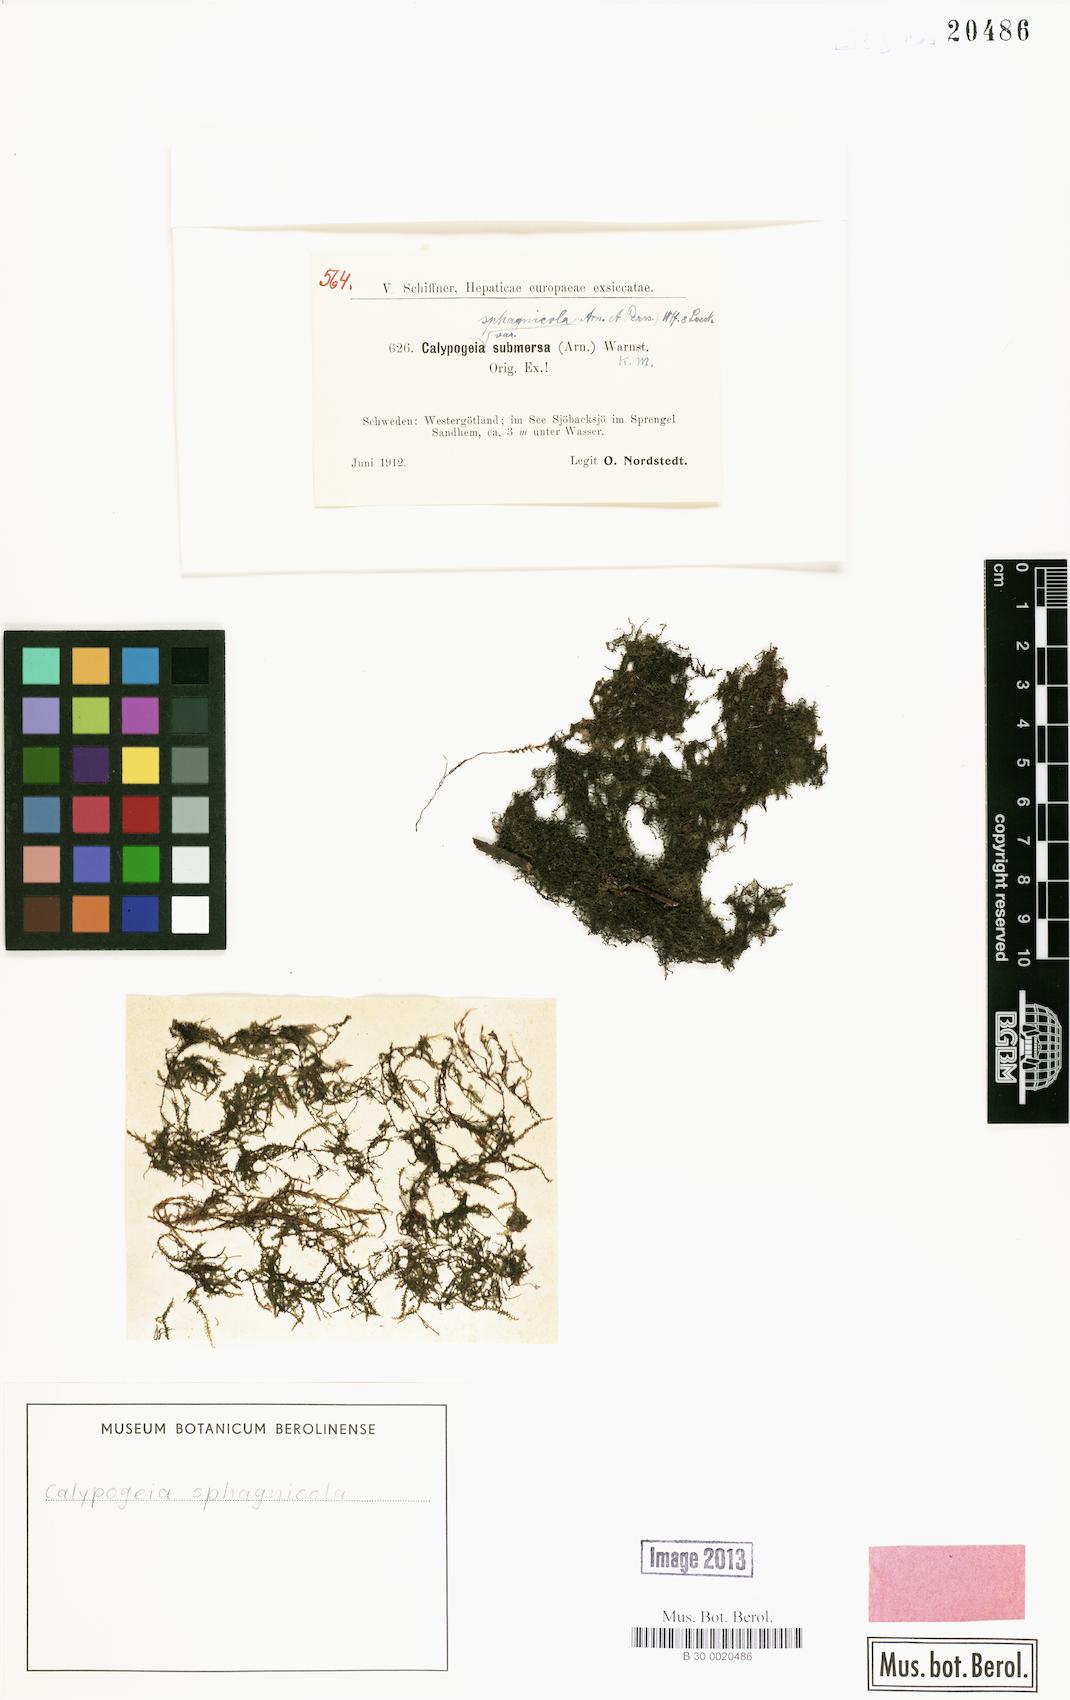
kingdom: Plantae
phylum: Marchantiophyta
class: Jungermanniopsida
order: Jungermanniales
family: Calypogeiaceae
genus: Calypogeia
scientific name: Calypogeia sphagnicola
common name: Bog pouchwort
